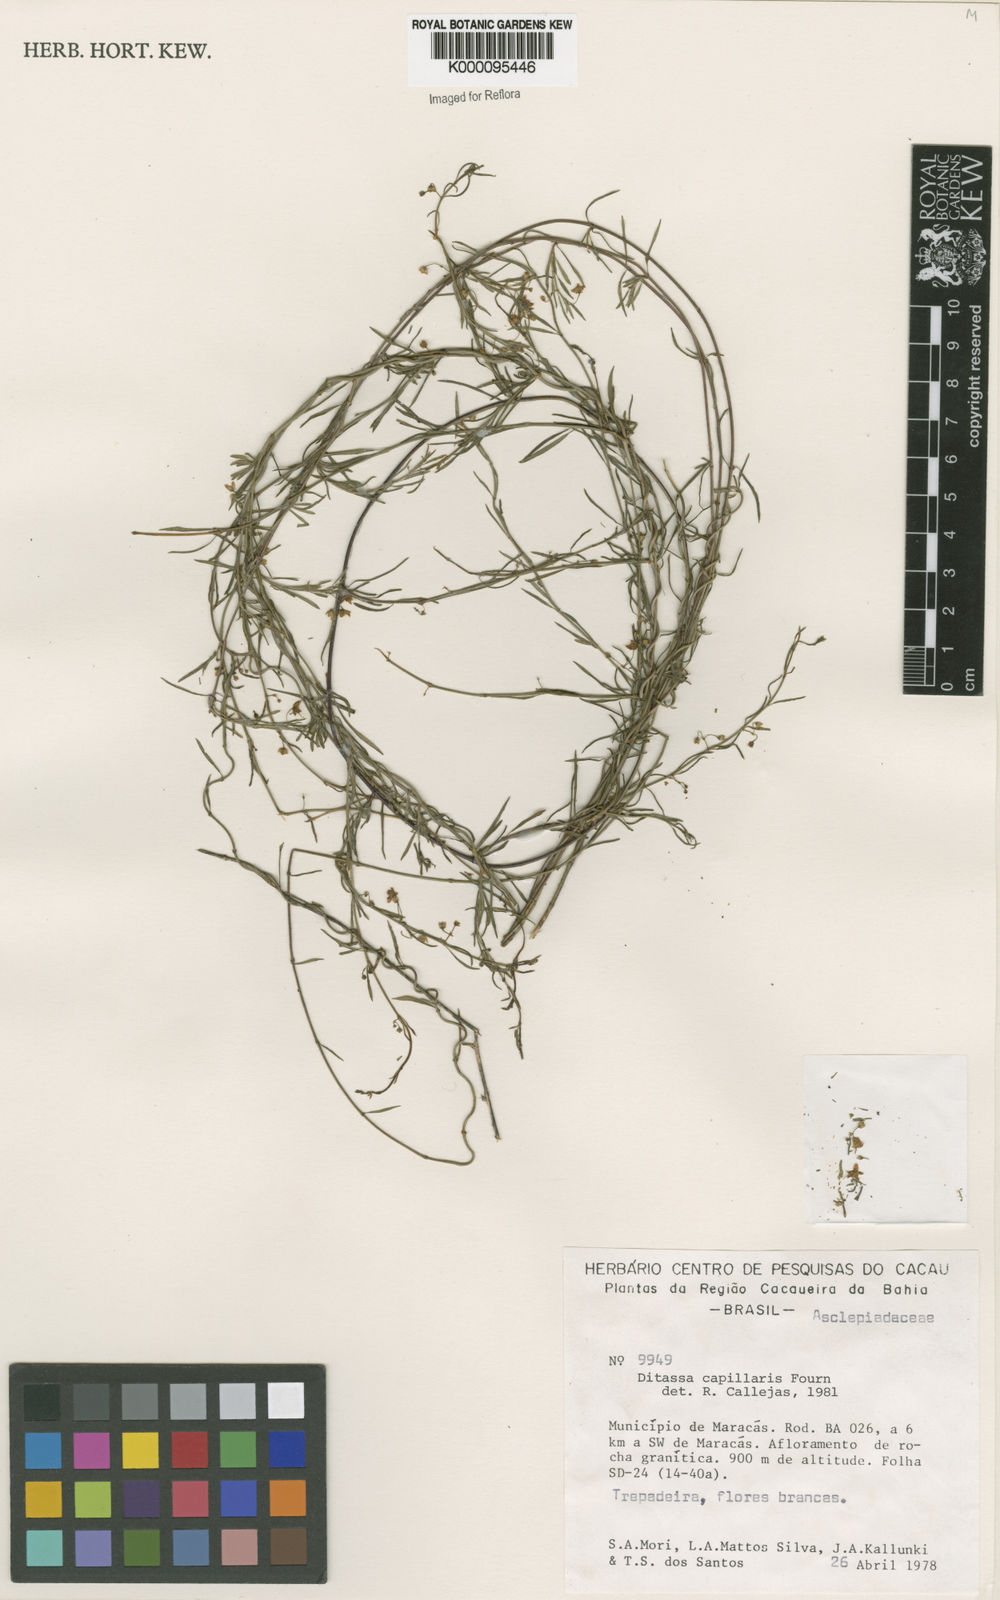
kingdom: Plantae
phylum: Tracheophyta
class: Magnoliopsida
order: Gentianales
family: Apocynaceae
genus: Ditassa
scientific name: Ditassa capillaris
